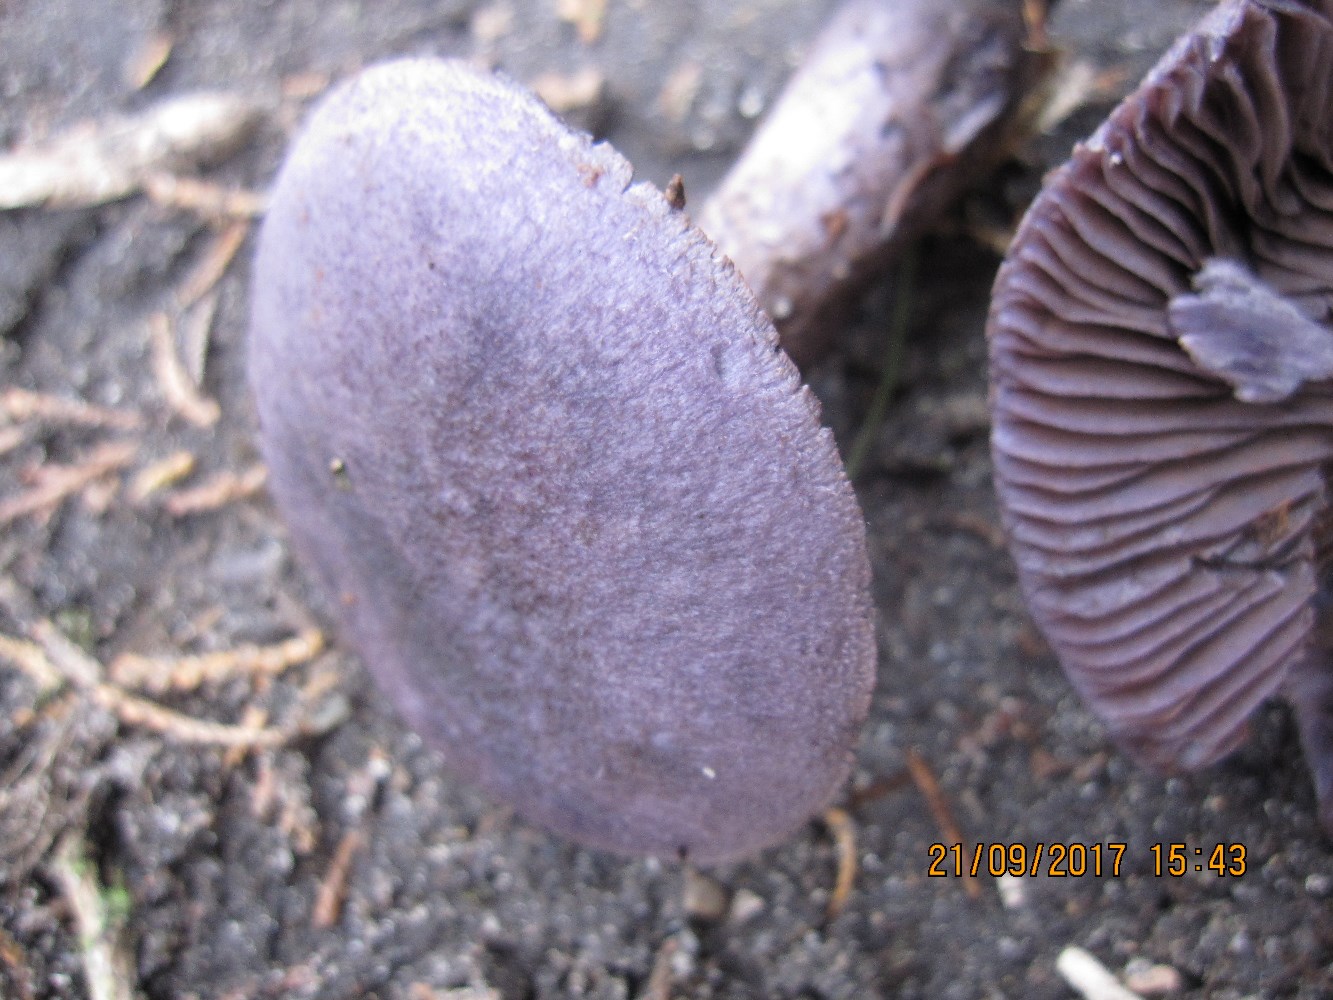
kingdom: Fungi
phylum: Basidiomycota
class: Agaricomycetes
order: Agaricales
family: Cortinariaceae
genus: Cortinarius
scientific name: Cortinarius violaceus
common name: mørkviolet slørhat
